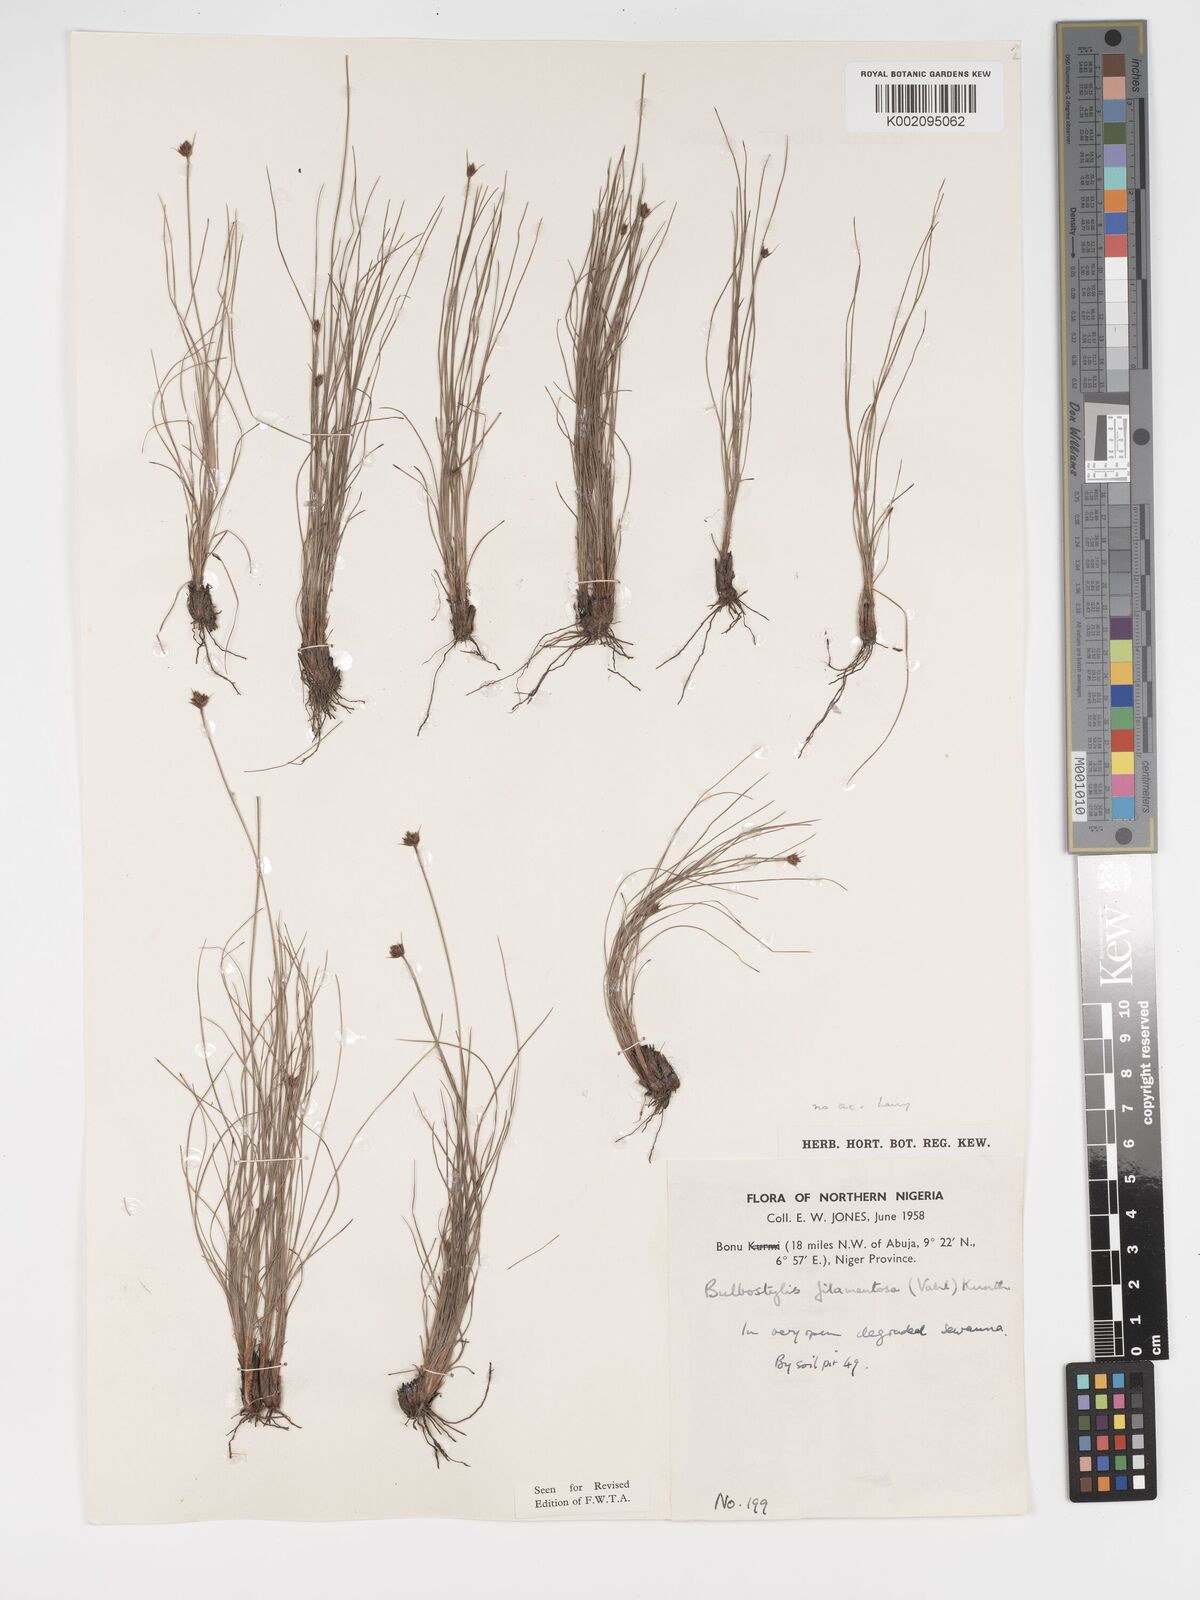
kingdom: Plantae
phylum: Tracheophyta
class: Liliopsida
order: Poales
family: Cyperaceae
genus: Bulbostylis
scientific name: Bulbostylis scabricaulis
